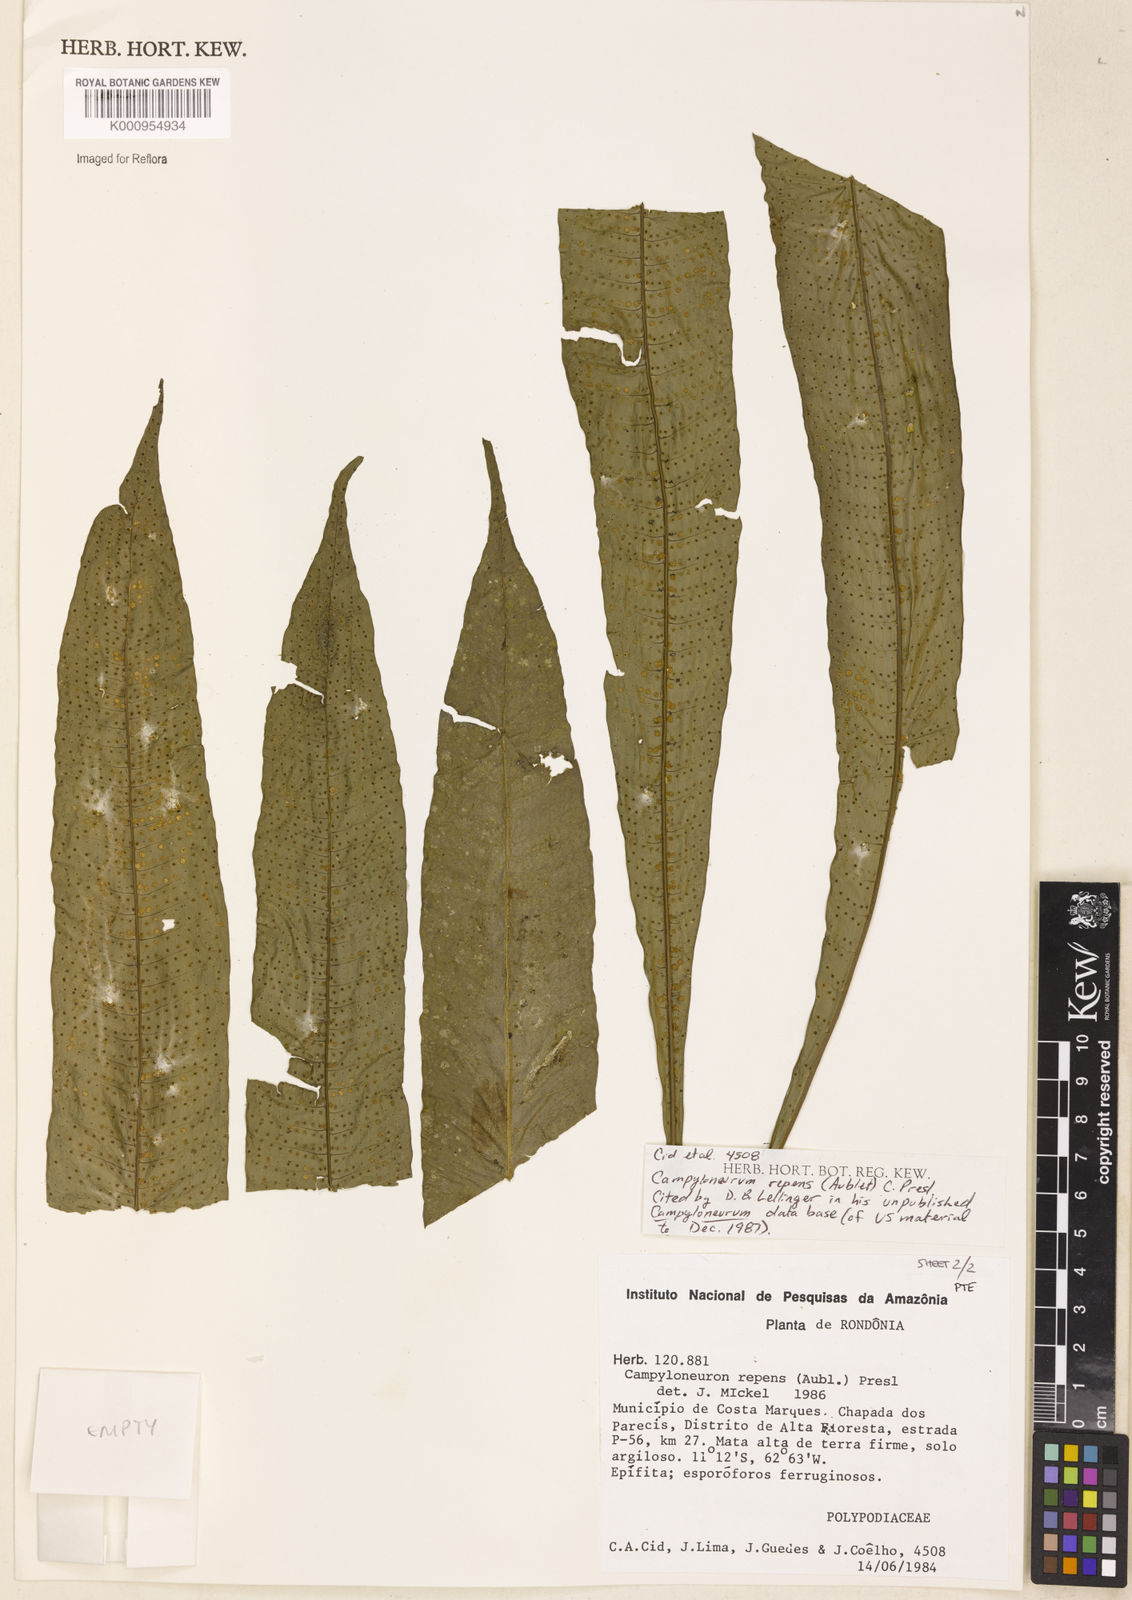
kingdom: Plantae
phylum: Tracheophyta
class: Polypodiopsida
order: Polypodiales
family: Polypodiaceae
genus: Campyloneurum
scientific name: Campyloneurum repens
